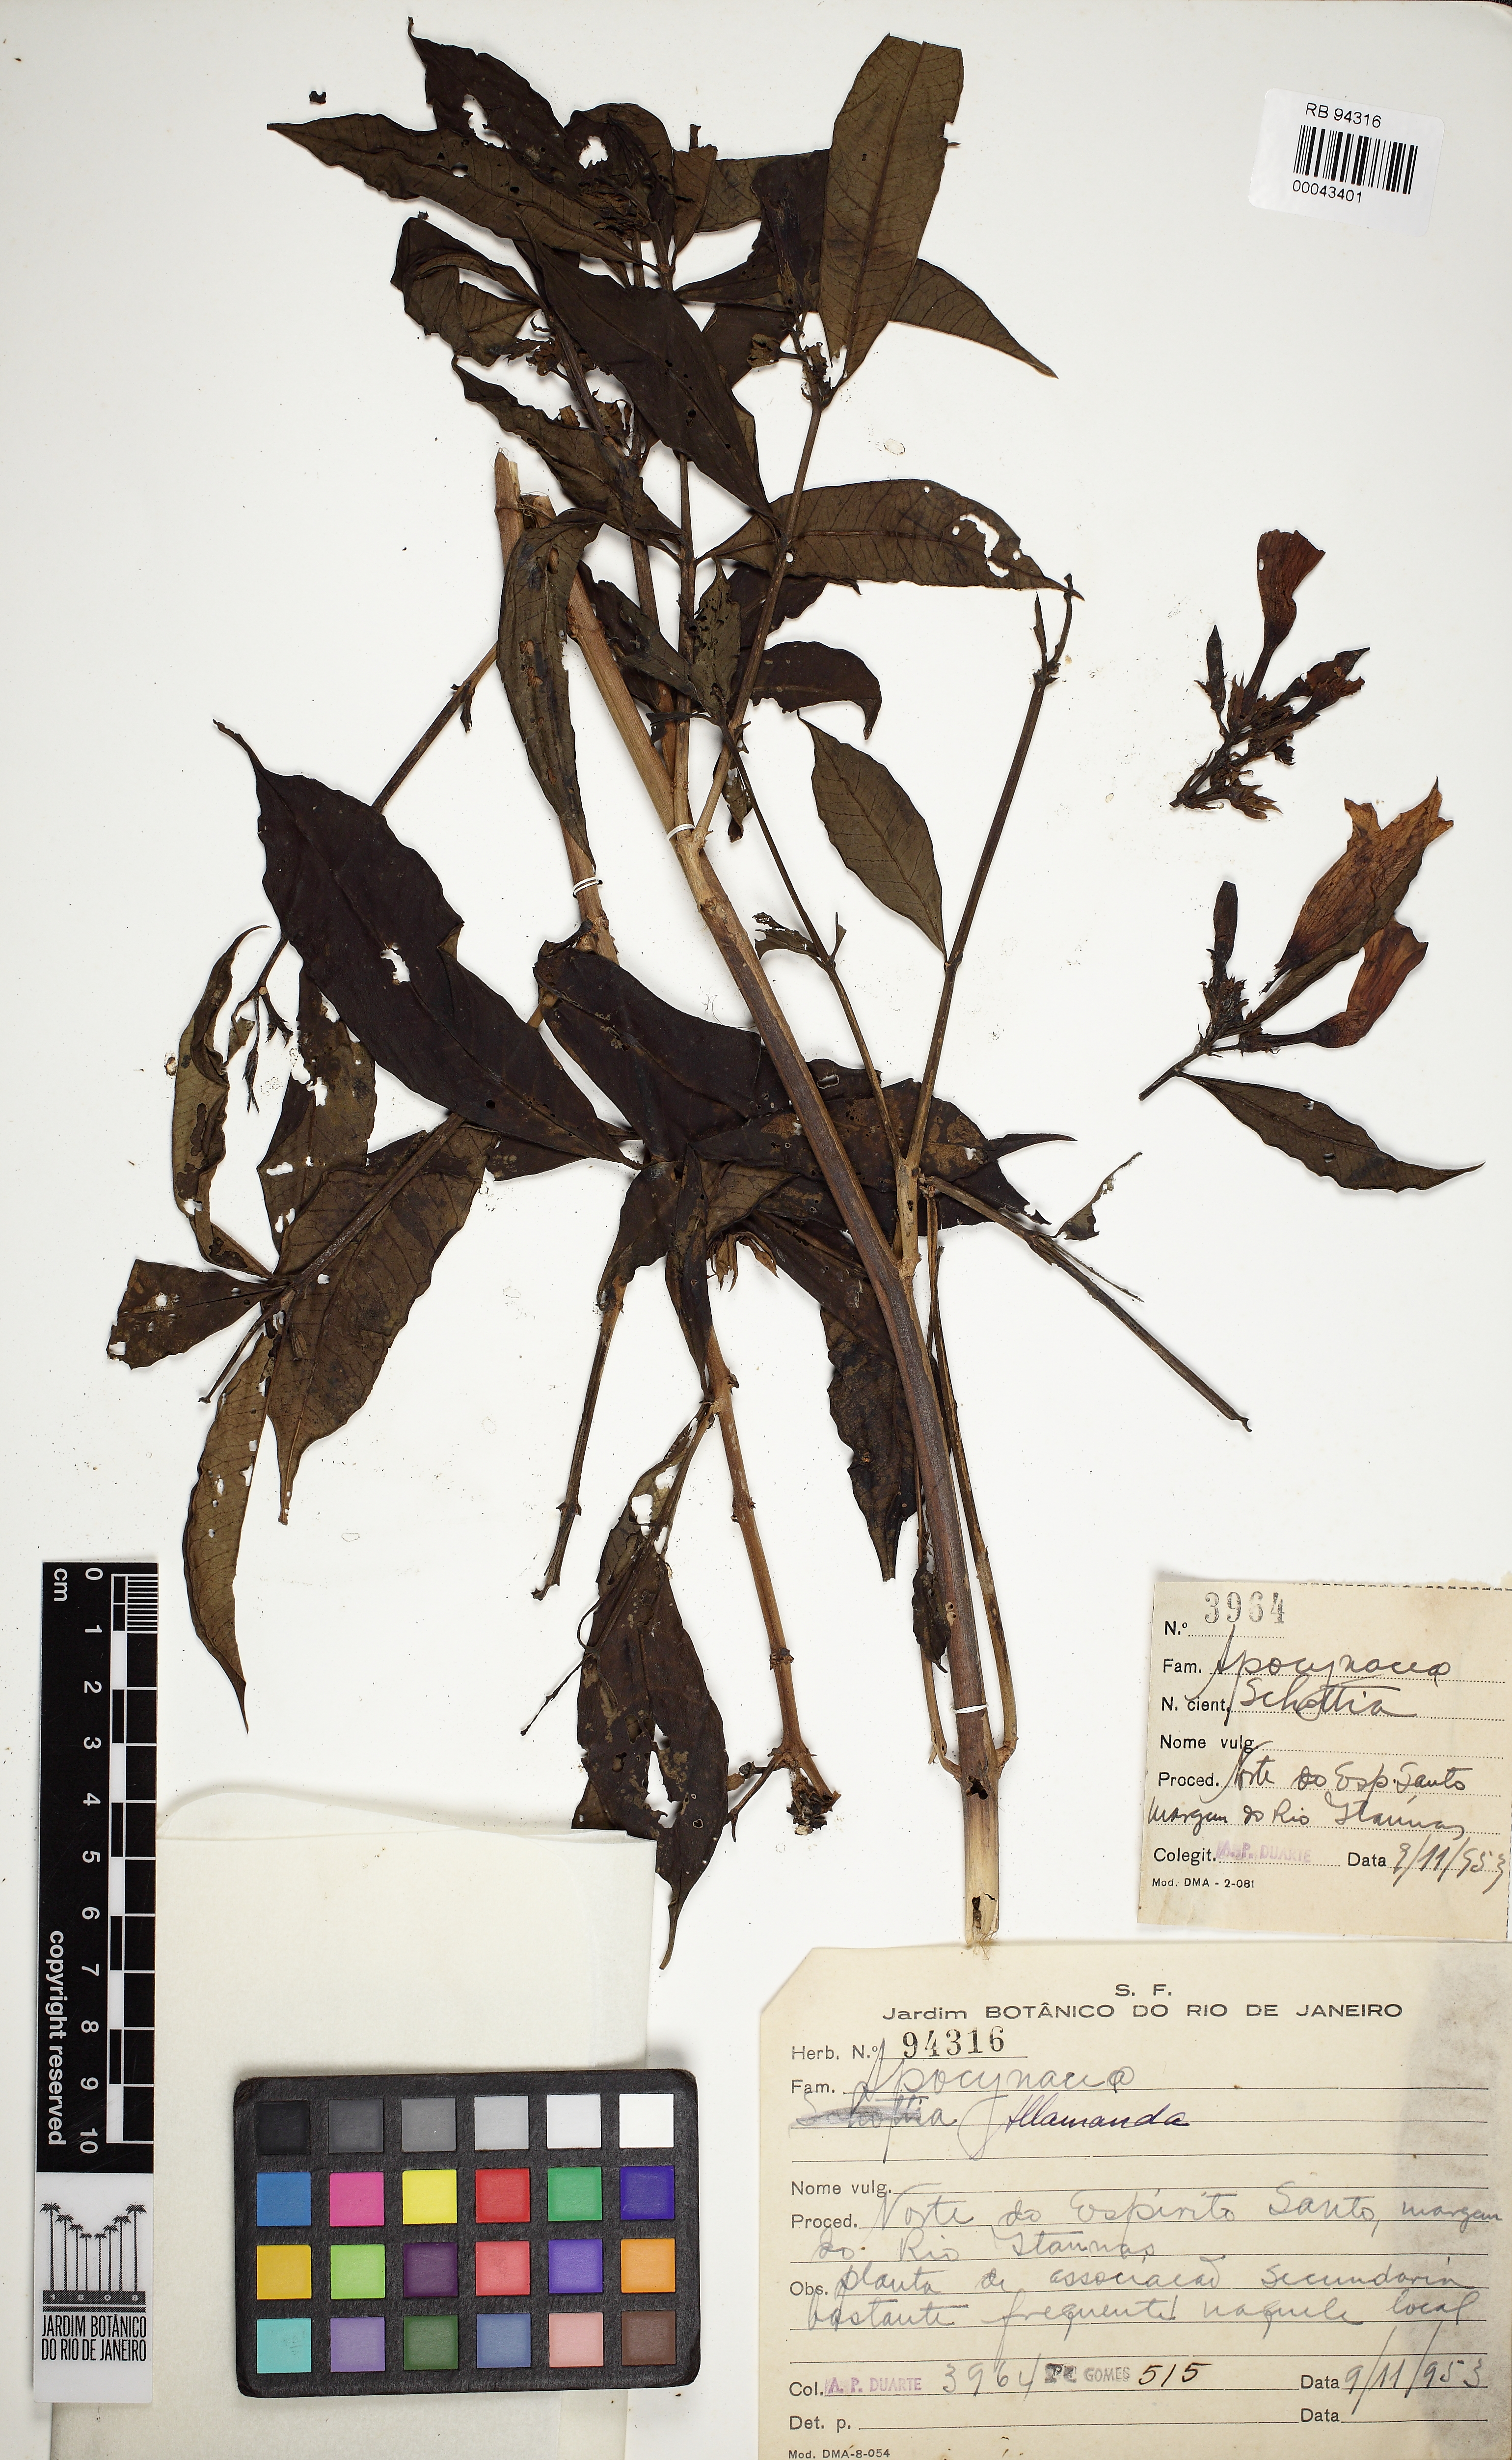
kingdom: Plantae
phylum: Tracheophyta
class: Magnoliopsida
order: Gentianales
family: Apocynaceae
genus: Allamanda
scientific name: Allamanda
